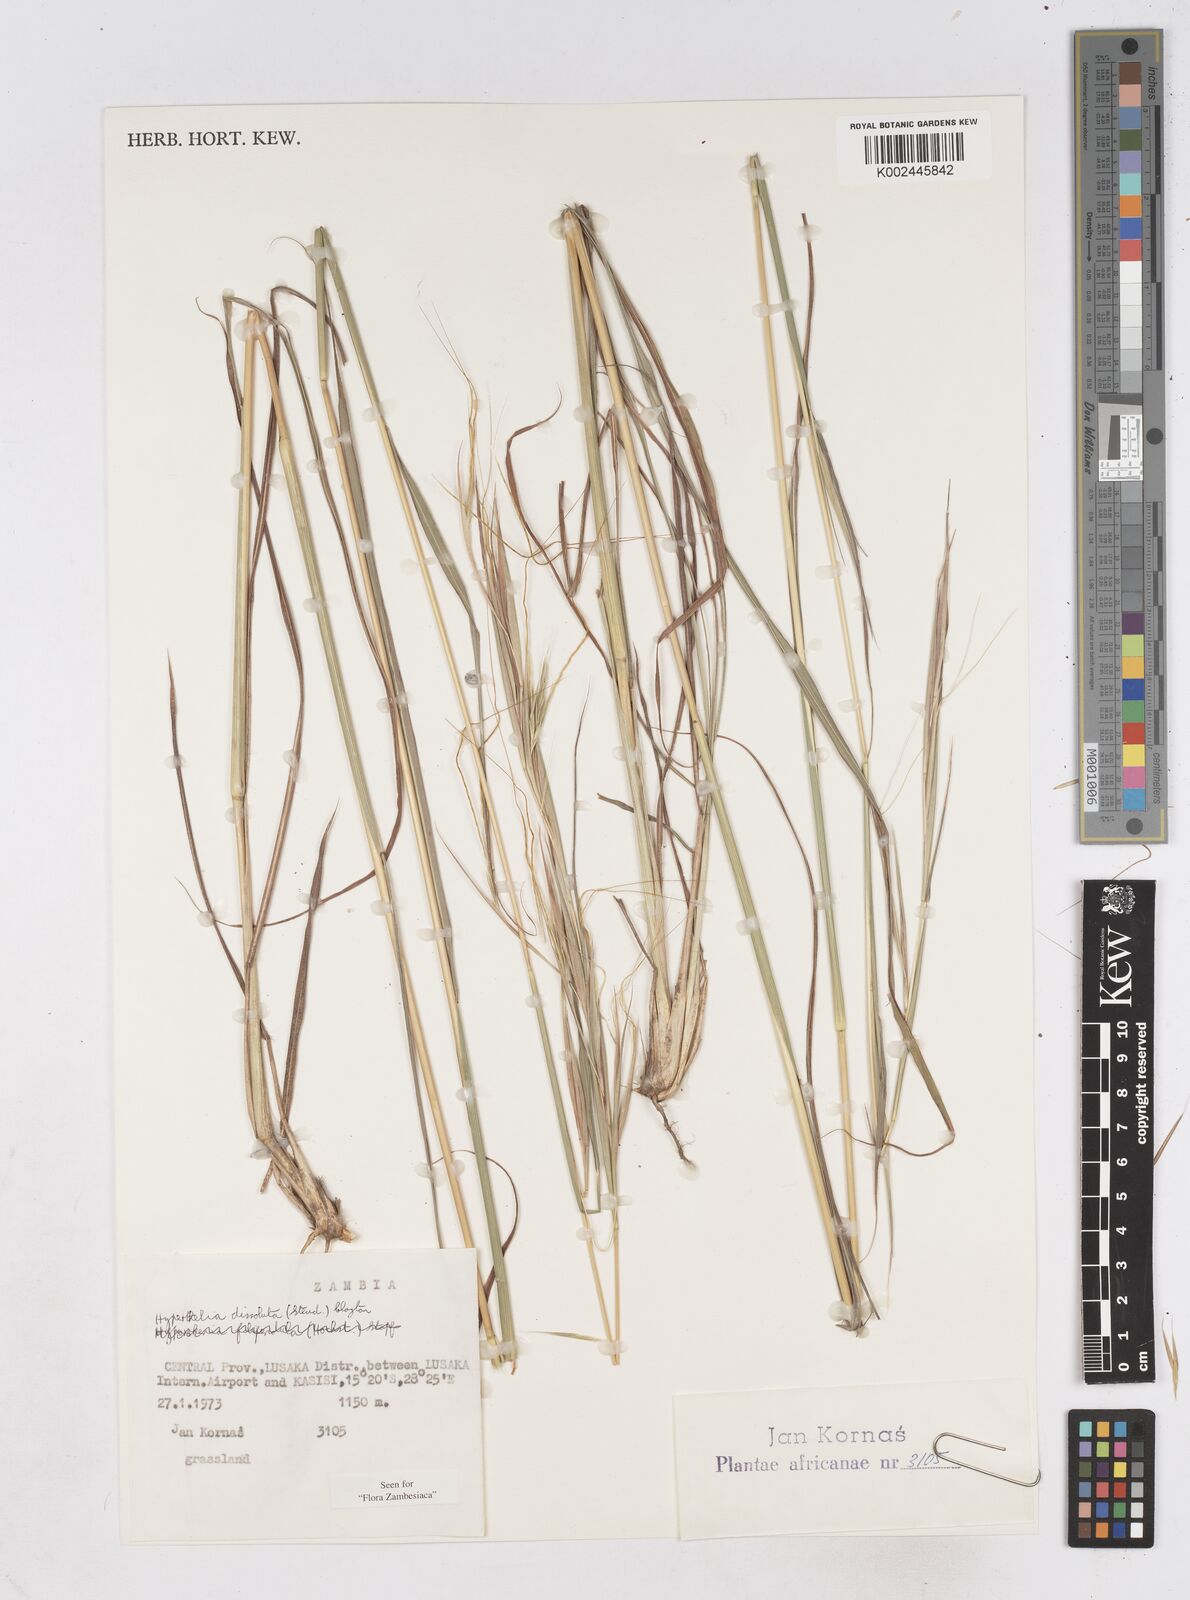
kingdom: Plantae
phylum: Tracheophyta
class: Liliopsida
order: Poales
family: Poaceae
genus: Hyperthelia
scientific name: Hyperthelia dissoluta
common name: Yellow thatching grass
